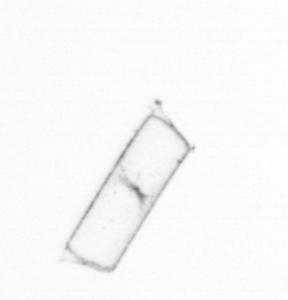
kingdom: Chromista
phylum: Ochrophyta
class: Bacillariophyceae
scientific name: Bacillariophyceae
